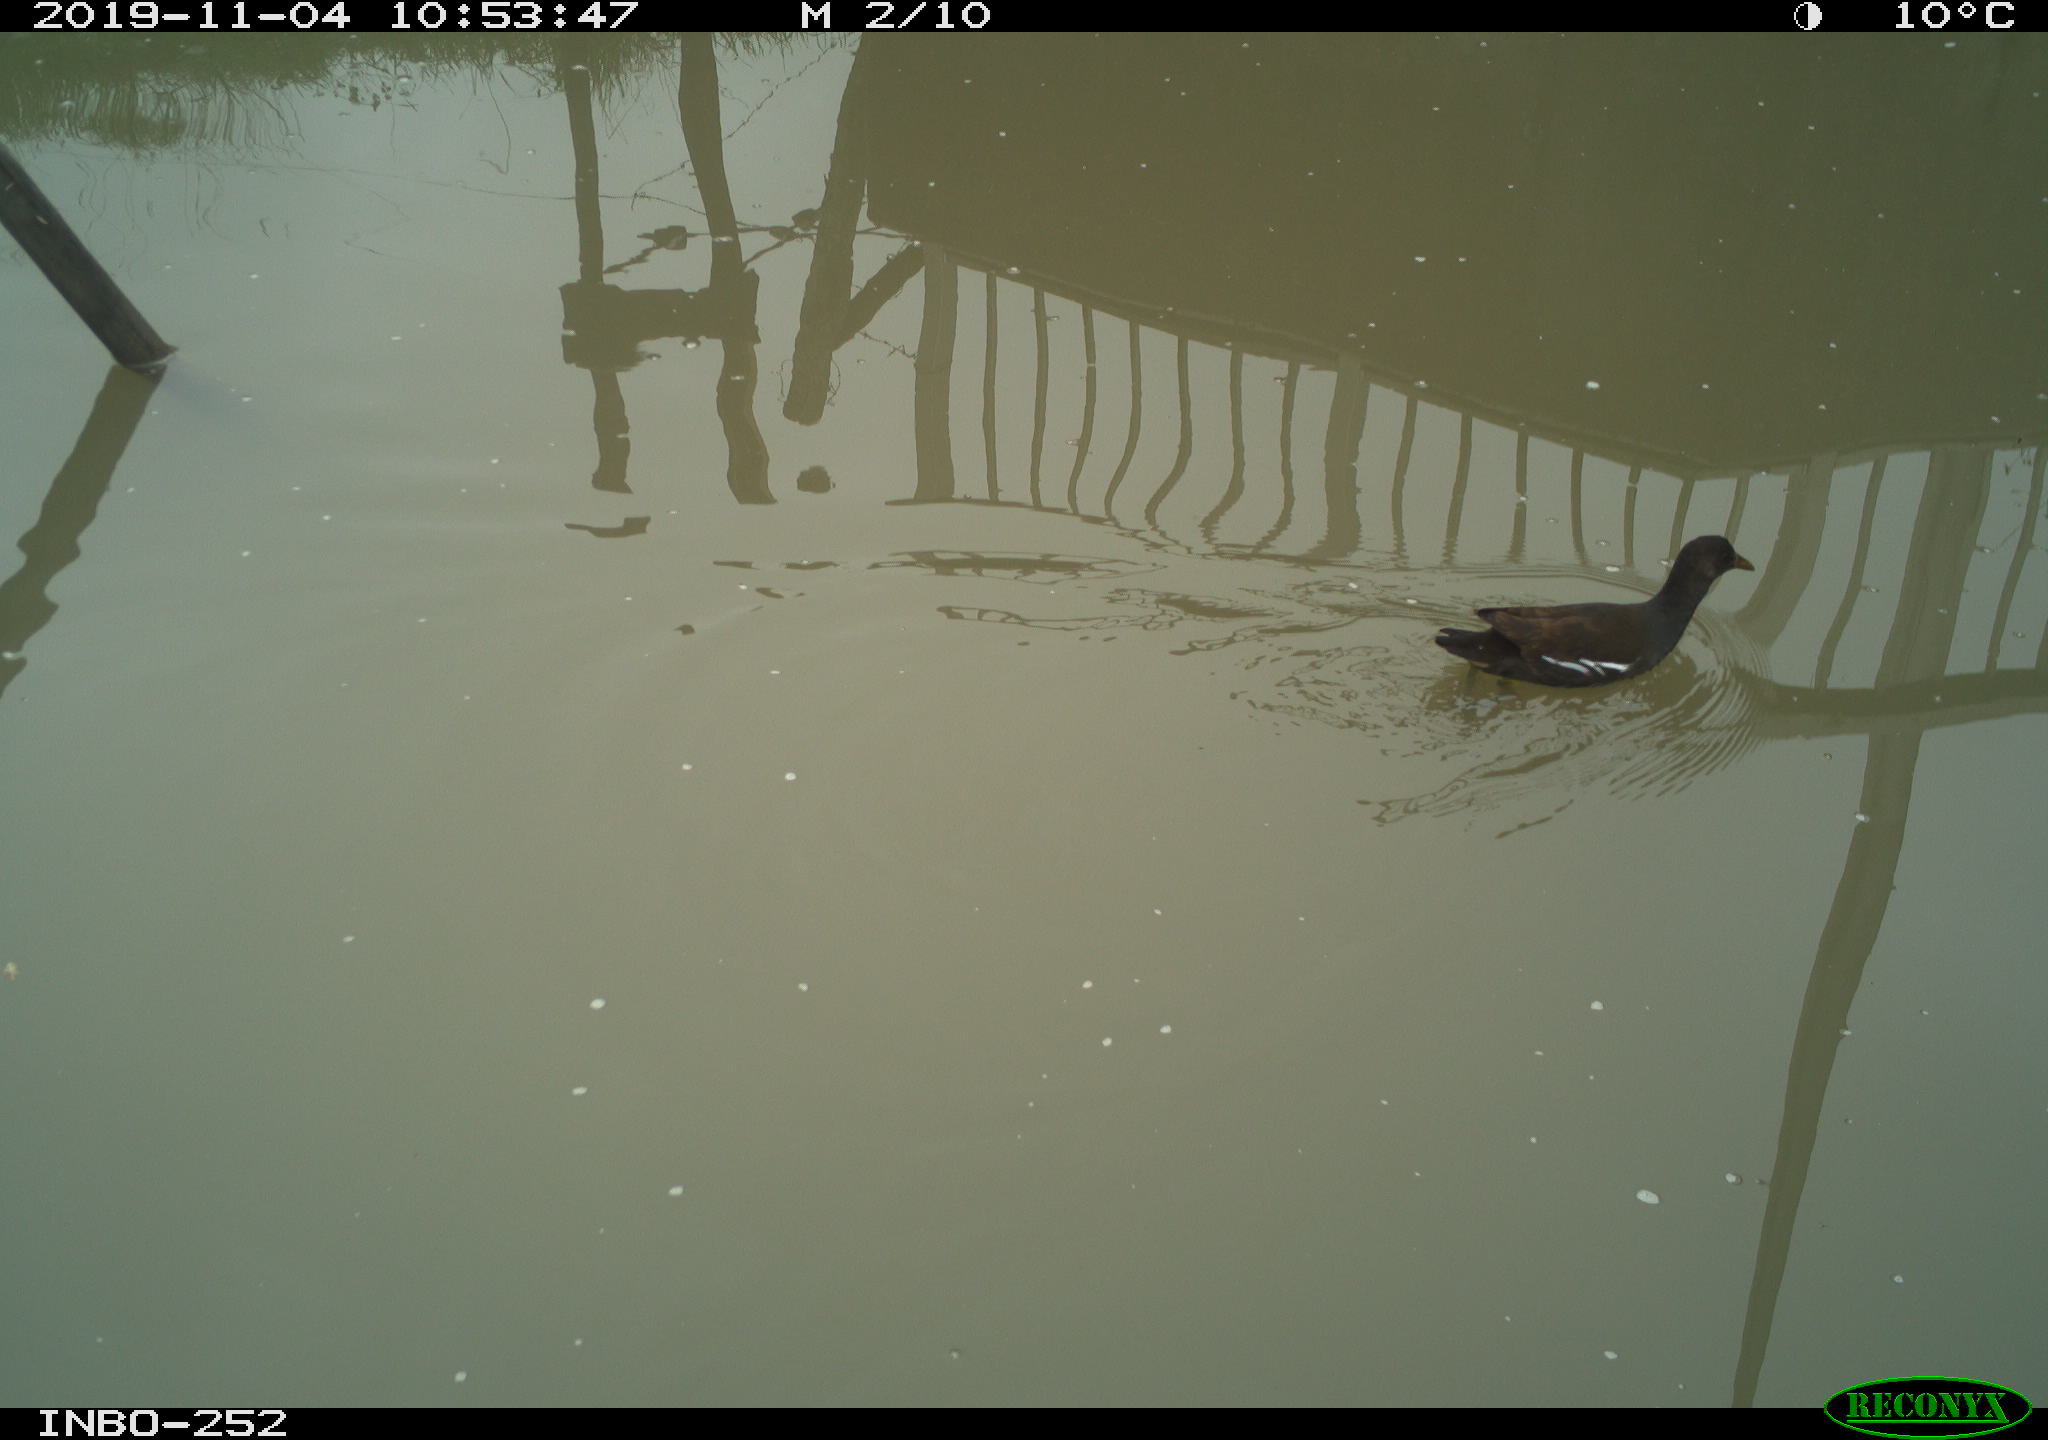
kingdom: Animalia
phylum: Chordata
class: Aves
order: Gruiformes
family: Rallidae
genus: Gallinula
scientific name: Gallinula chloropus
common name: Common moorhen
